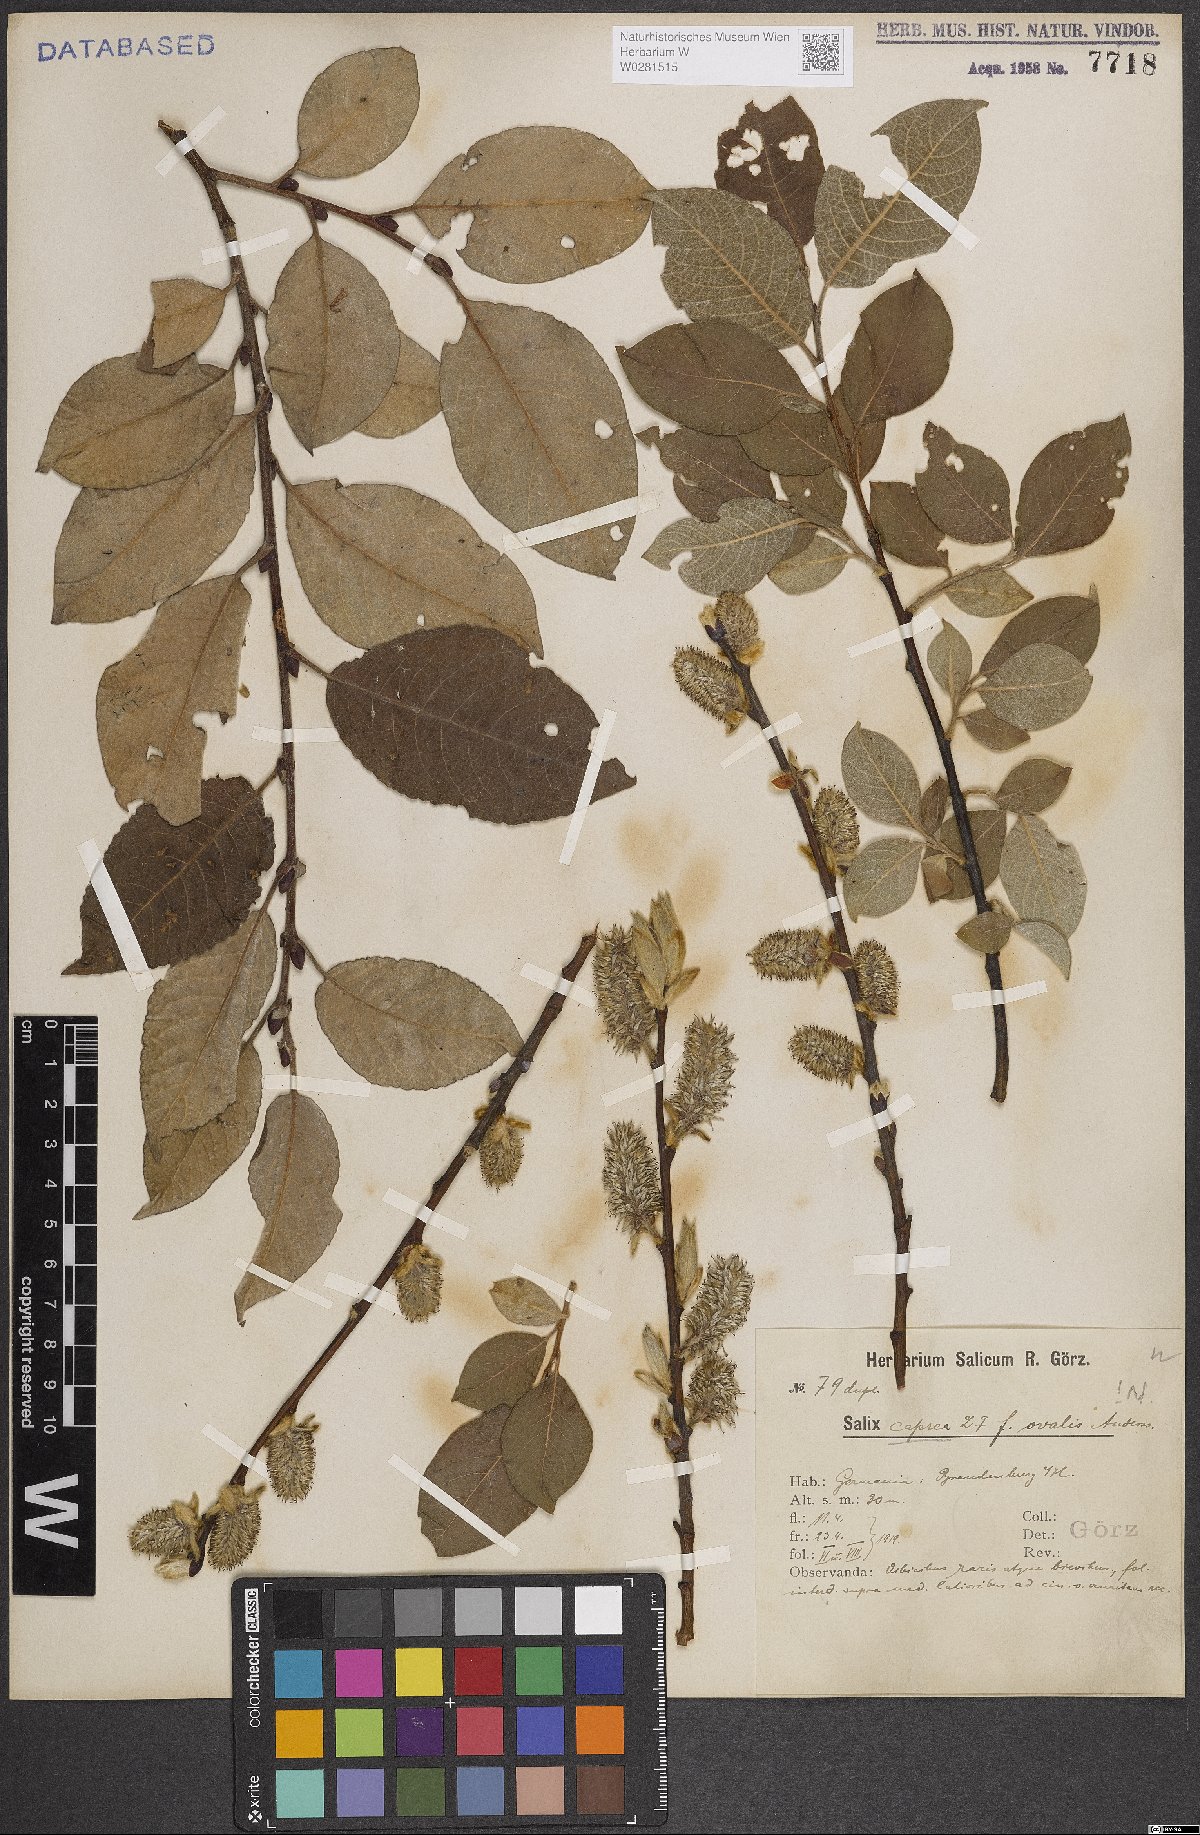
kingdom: Plantae
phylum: Tracheophyta
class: Magnoliopsida
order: Malpighiales
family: Salicaceae
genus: Salix
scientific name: Salix caprea
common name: Goat willow
